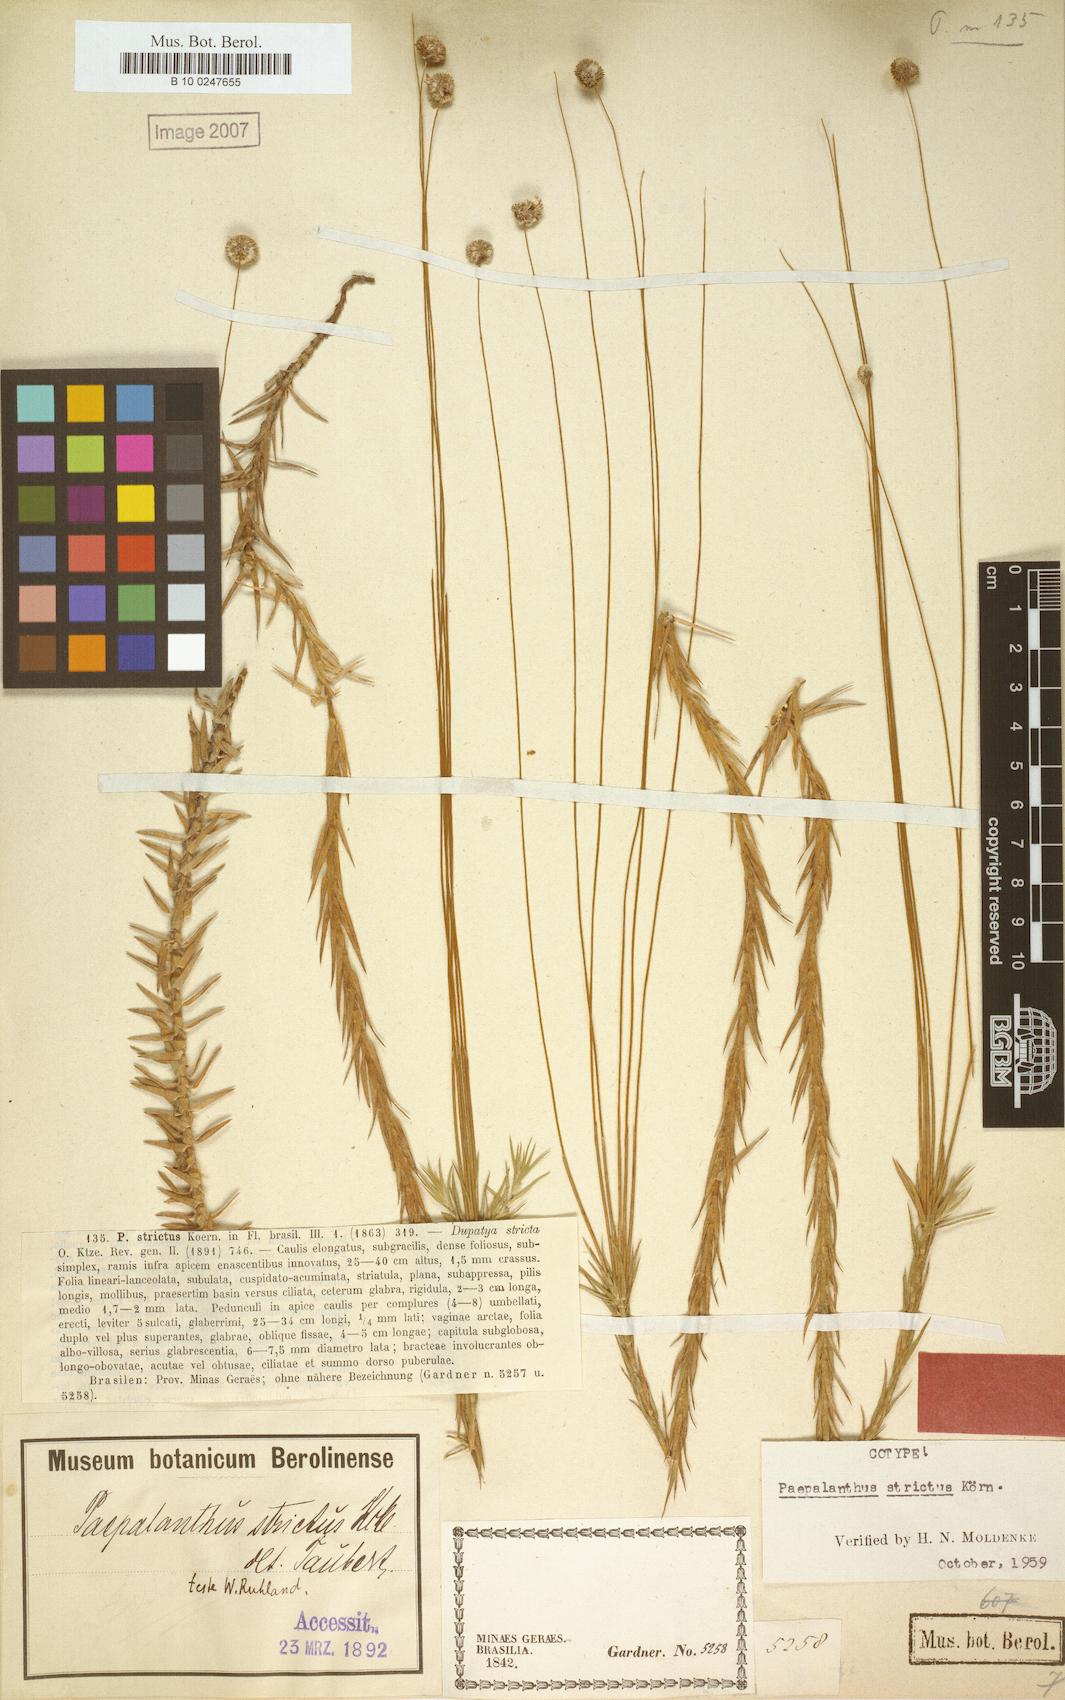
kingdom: Plantae
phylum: Tracheophyta
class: Liliopsida
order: Poales
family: Eriocaulaceae
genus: Paepalanthus
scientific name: Paepalanthus strictus
